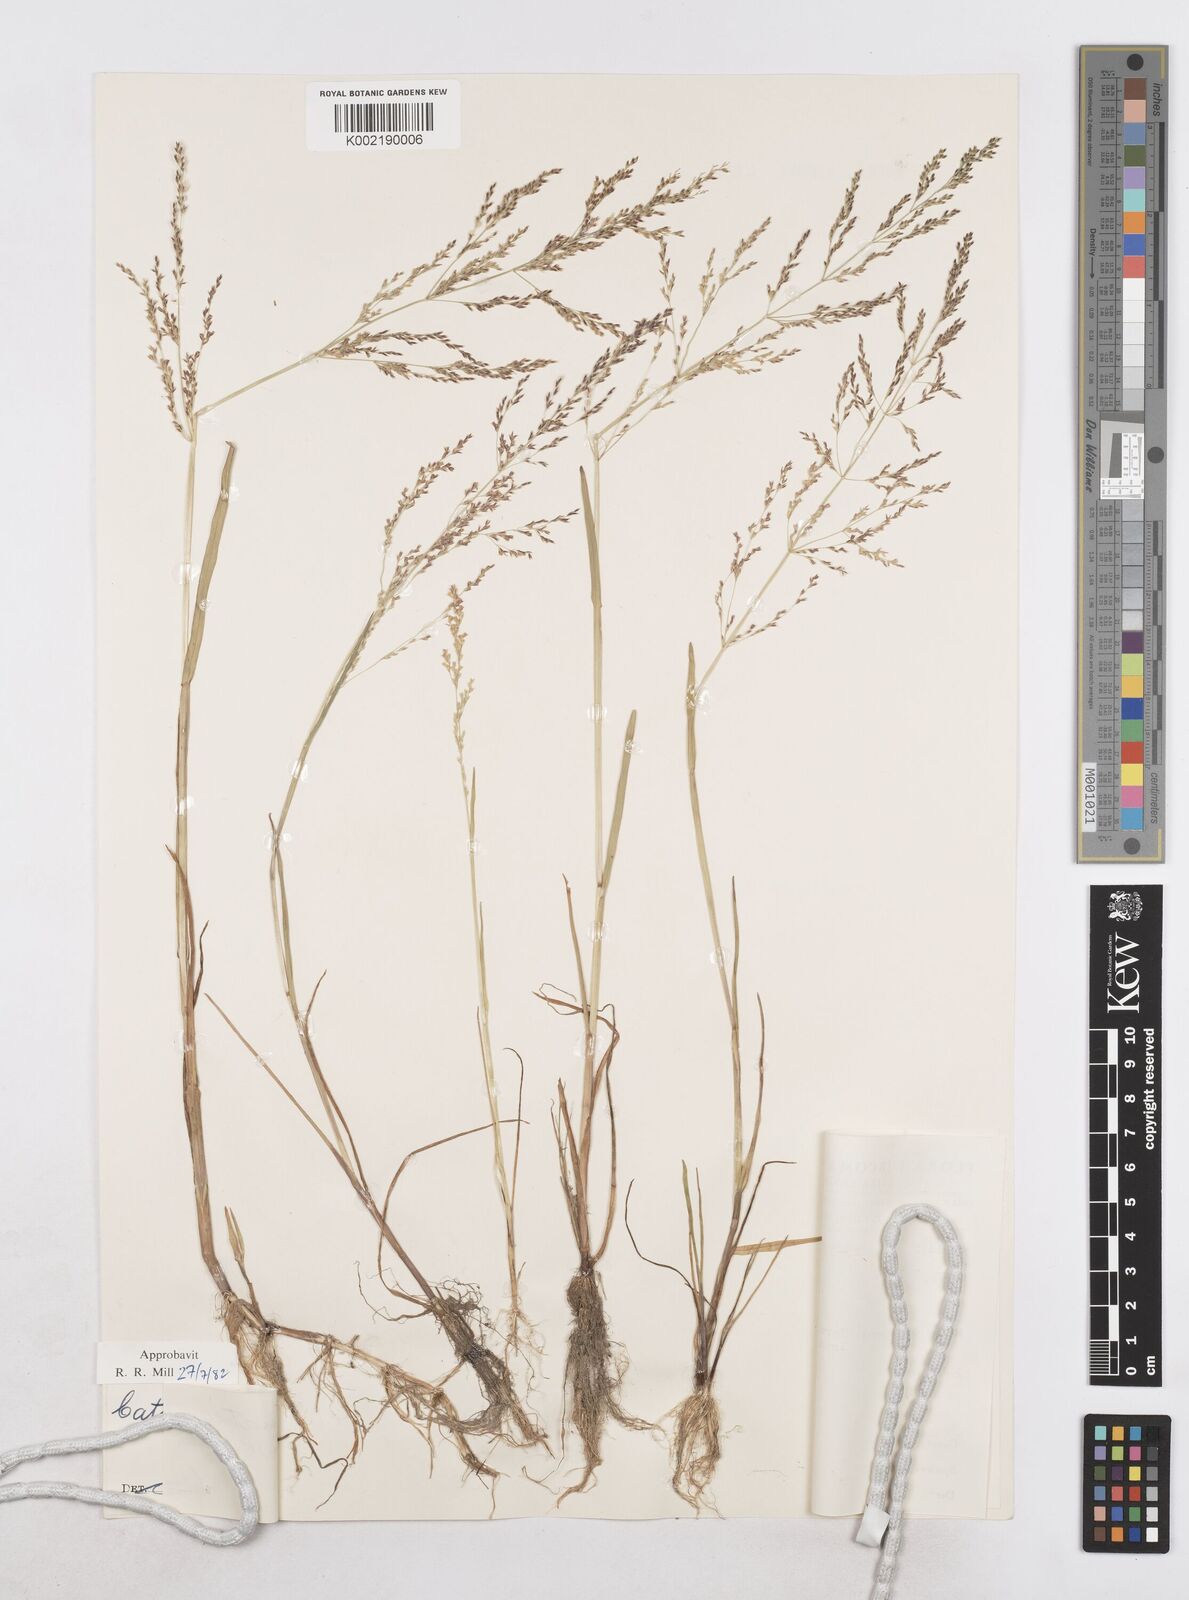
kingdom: Plantae
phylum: Tracheophyta
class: Liliopsida
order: Poales
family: Poaceae
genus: Catabrosa
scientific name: Catabrosa aquatica
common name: Whorl-grass
